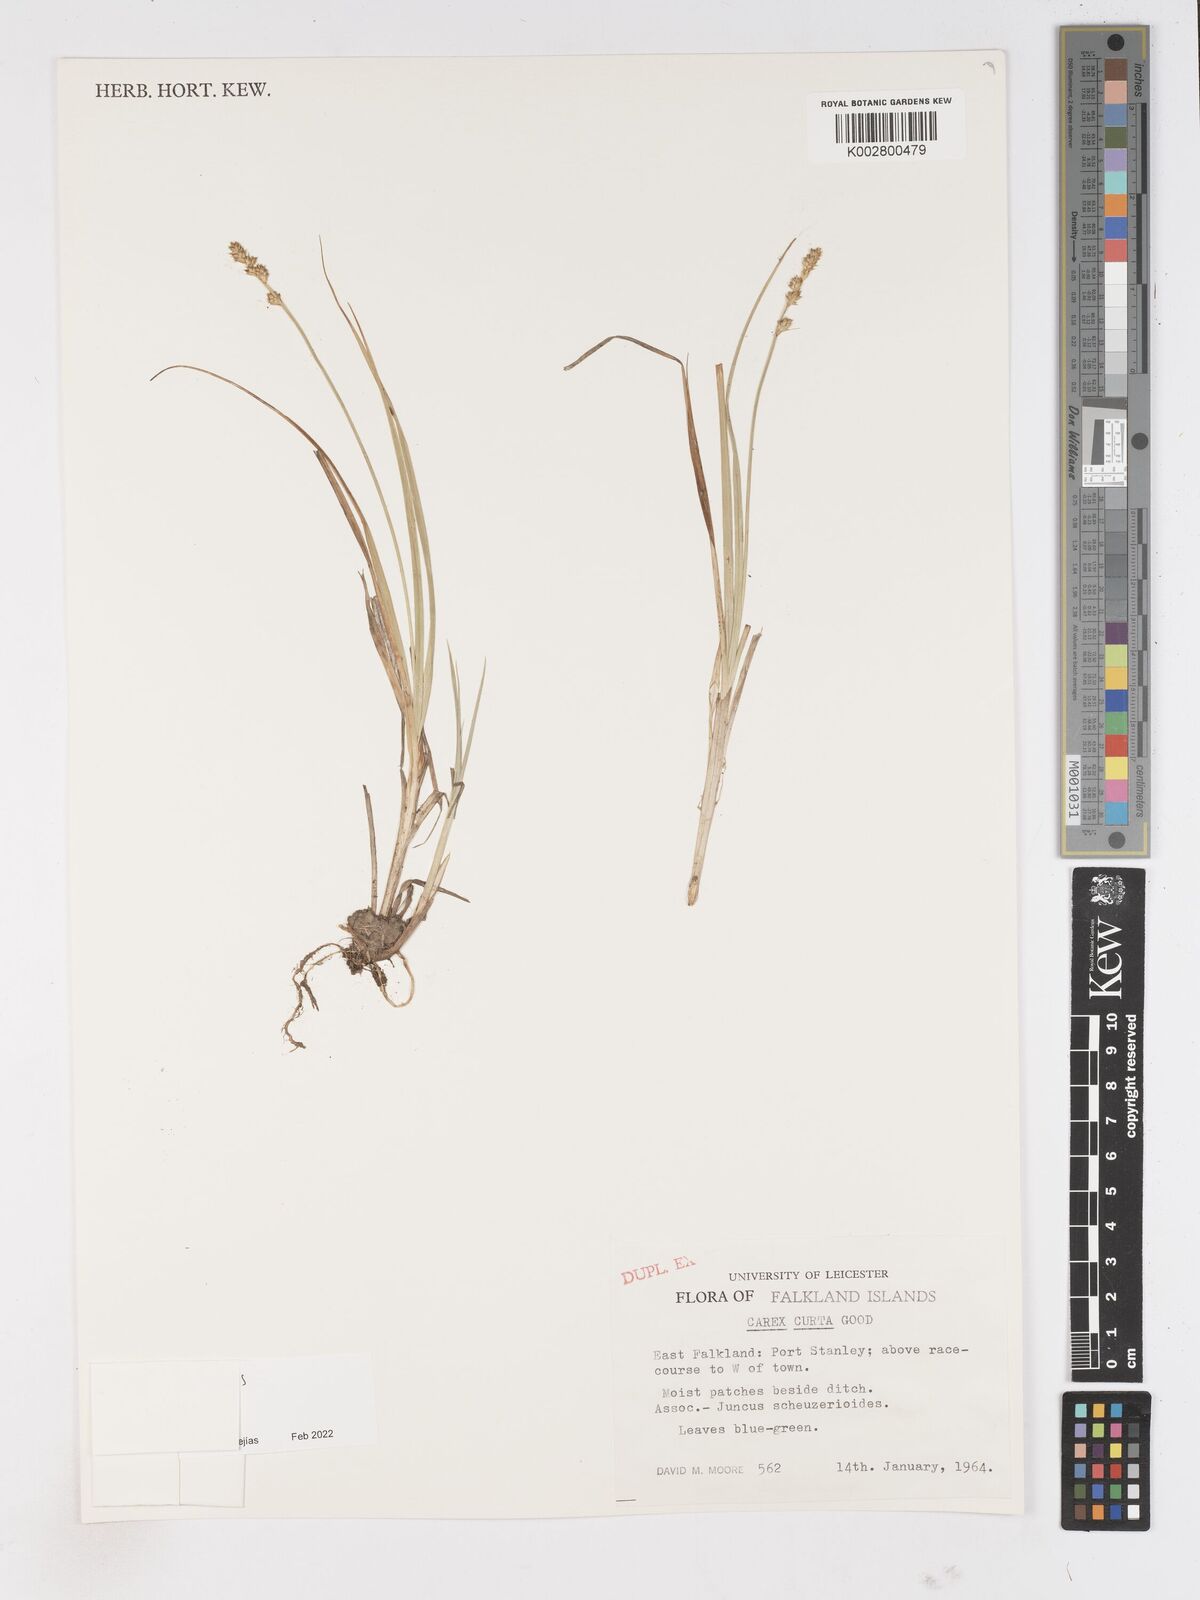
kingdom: Plantae
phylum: Tracheophyta
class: Liliopsida
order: Poales
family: Cyperaceae
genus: Carex
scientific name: Carex curta
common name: White sedge
